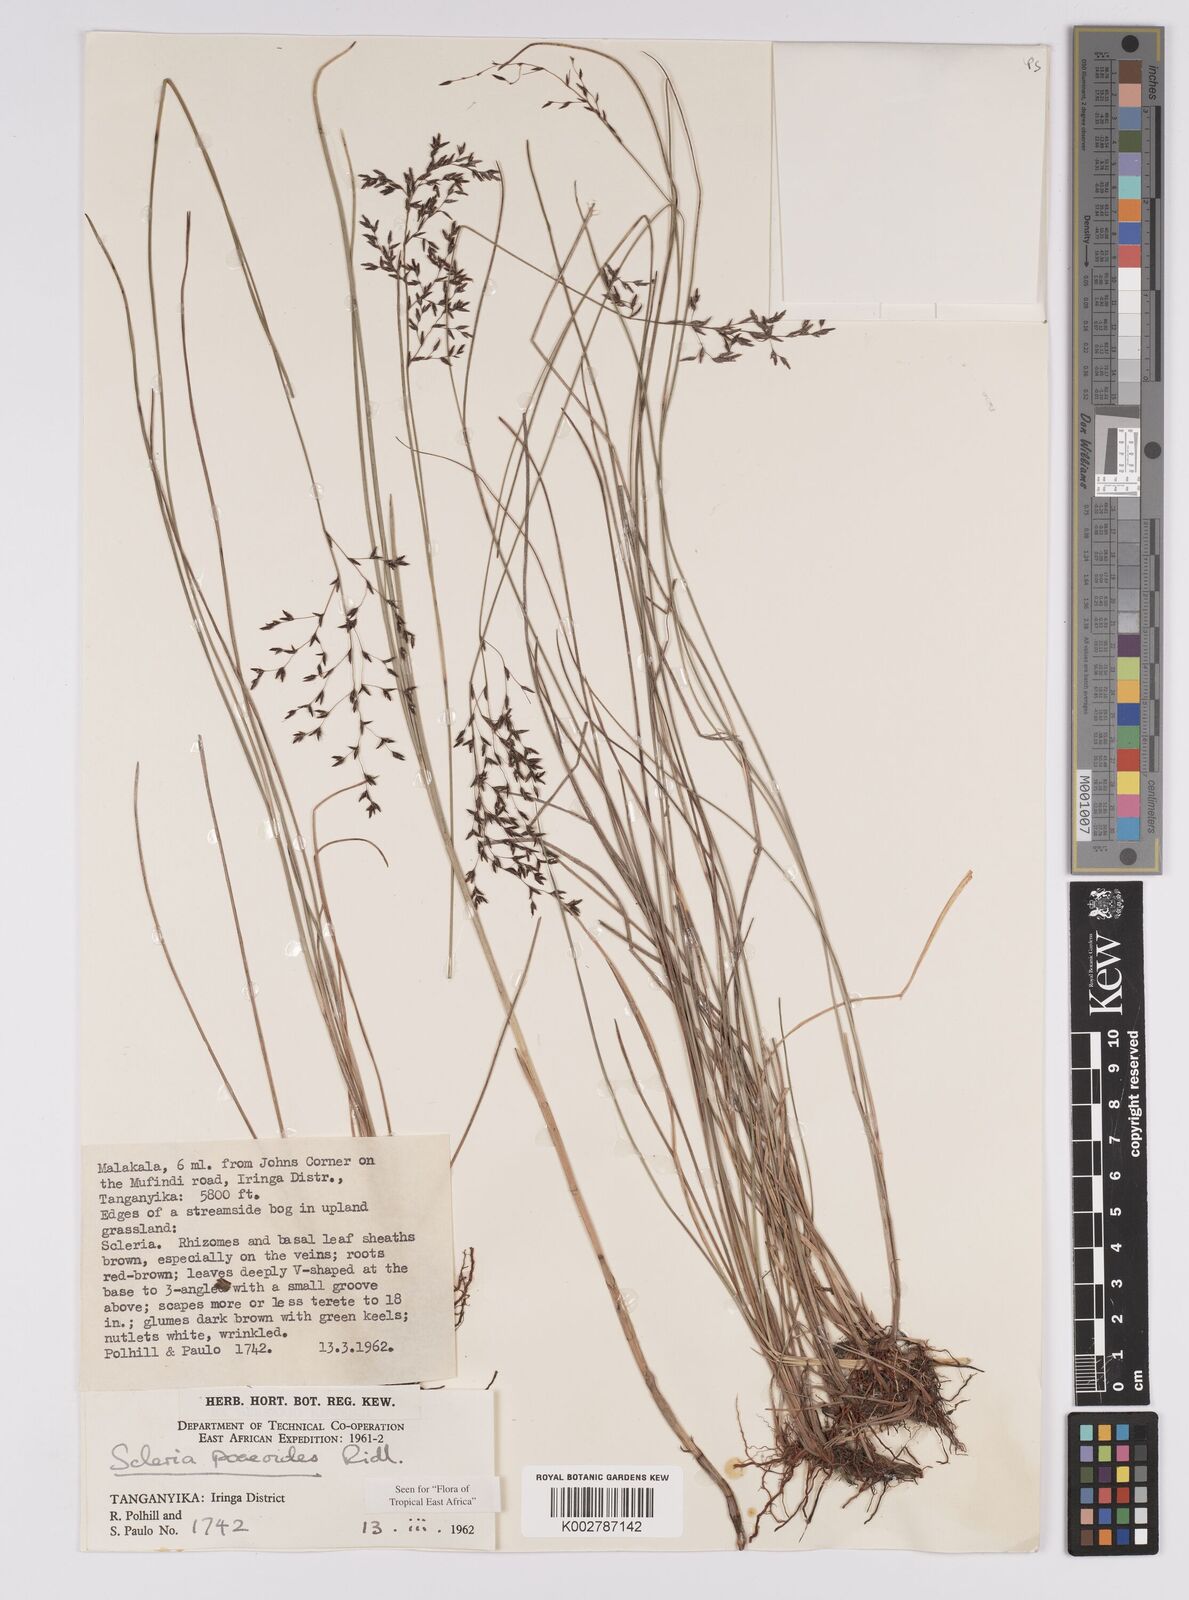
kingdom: Plantae
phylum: Tracheophyta
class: Liliopsida
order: Poales
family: Cyperaceae
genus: Scleria
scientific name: Scleria pooides
